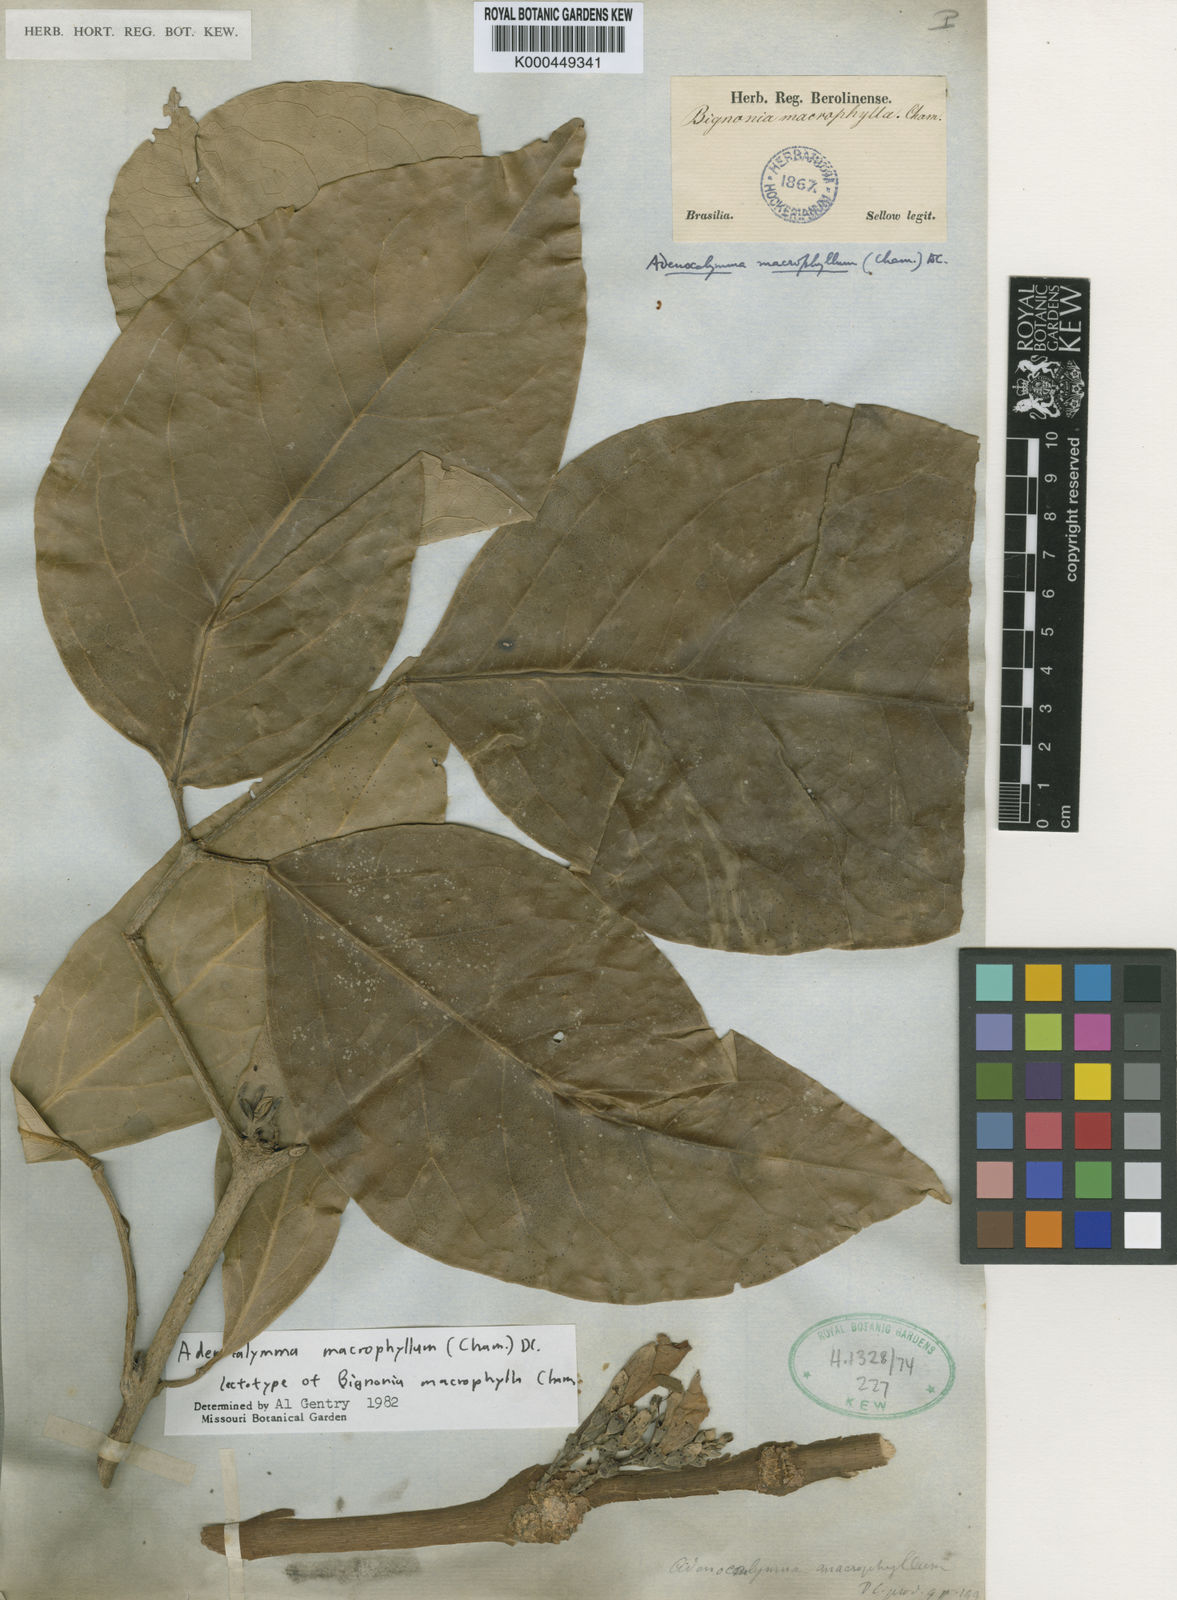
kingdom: Plantae
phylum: Tracheophyta
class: Magnoliopsida
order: Lamiales
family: Bignoniaceae
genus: Adenocalymma
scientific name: Adenocalymma ternatum
